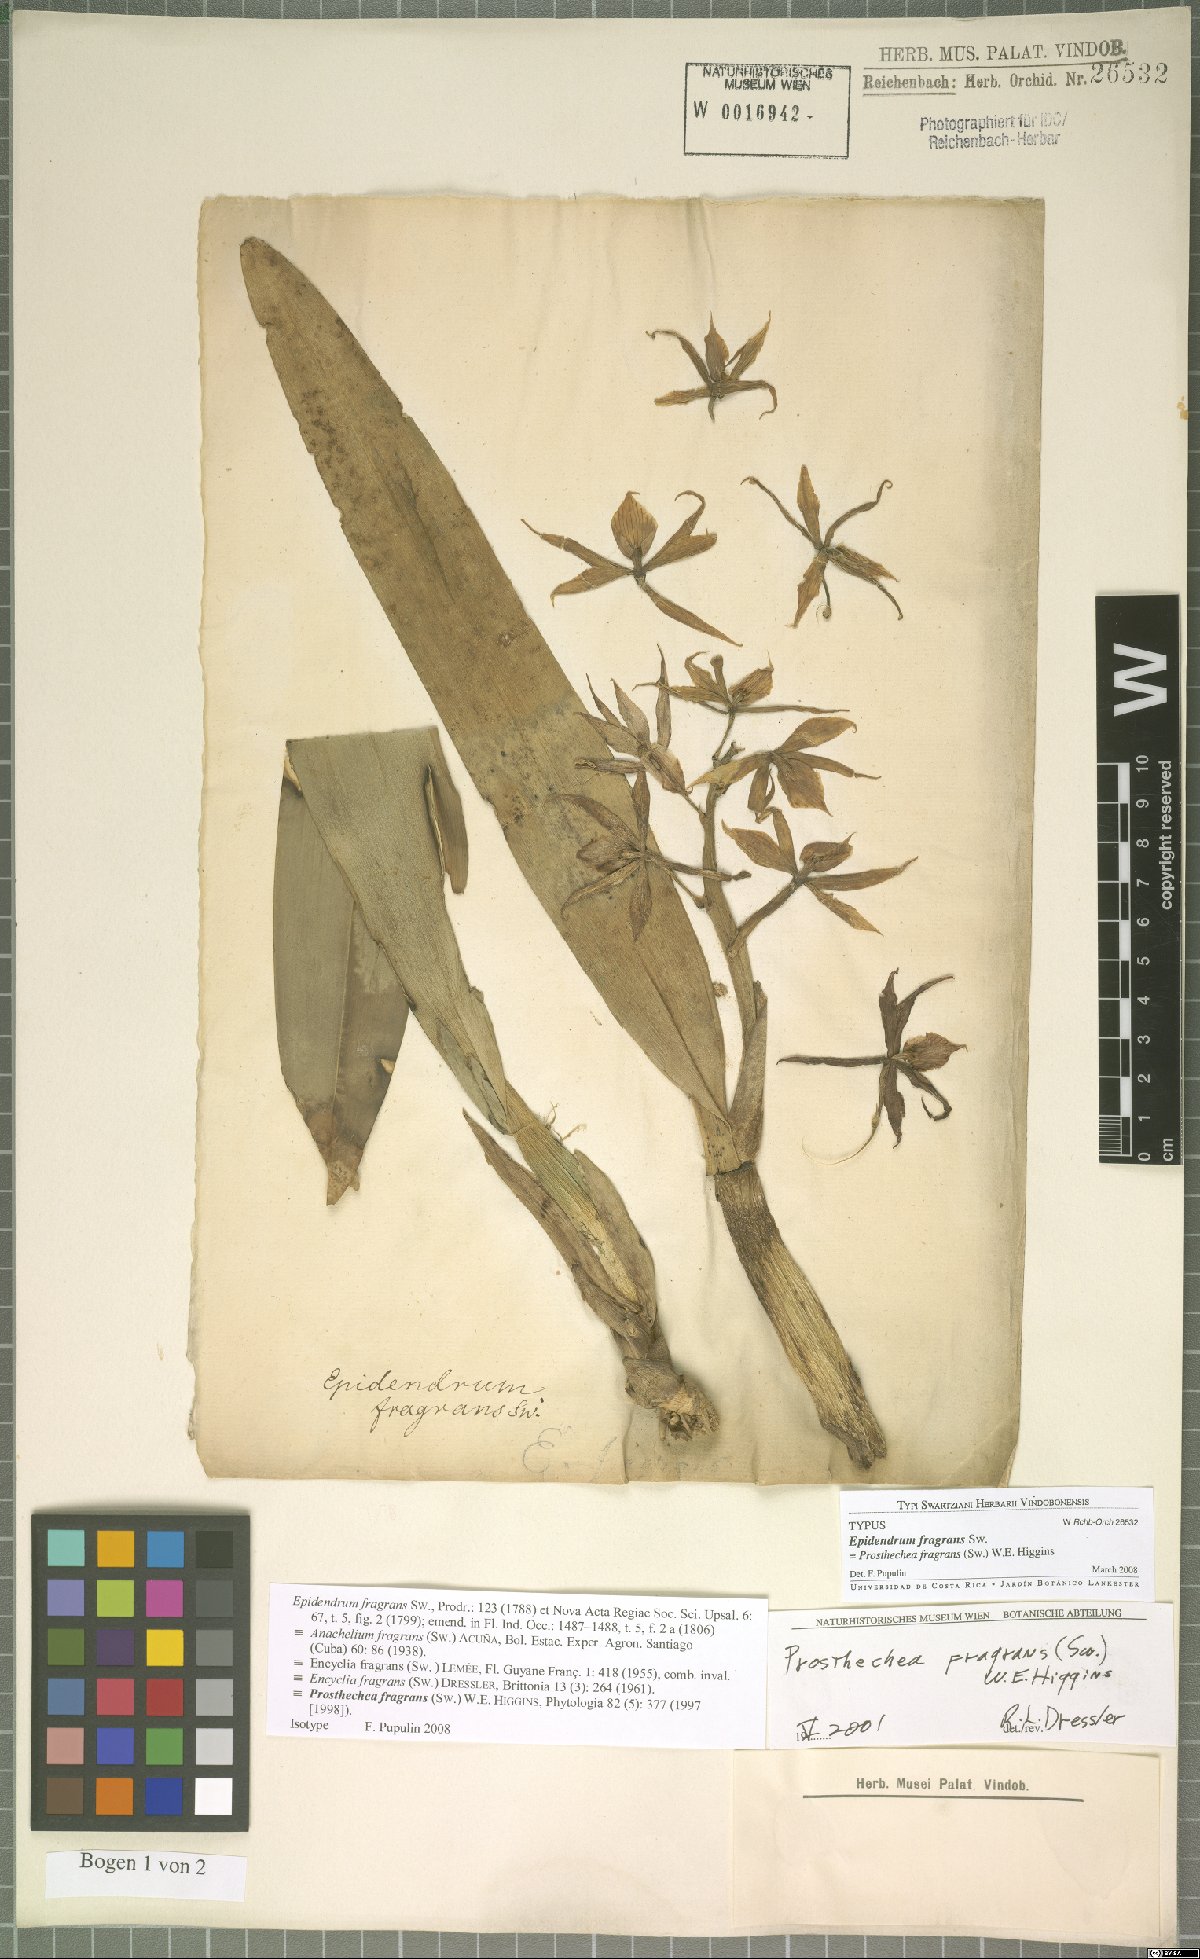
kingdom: Plantae
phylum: Tracheophyta
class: Liliopsida
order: Asparagales
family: Orchidaceae
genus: Prosthechea
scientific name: Prosthechea fragrans
